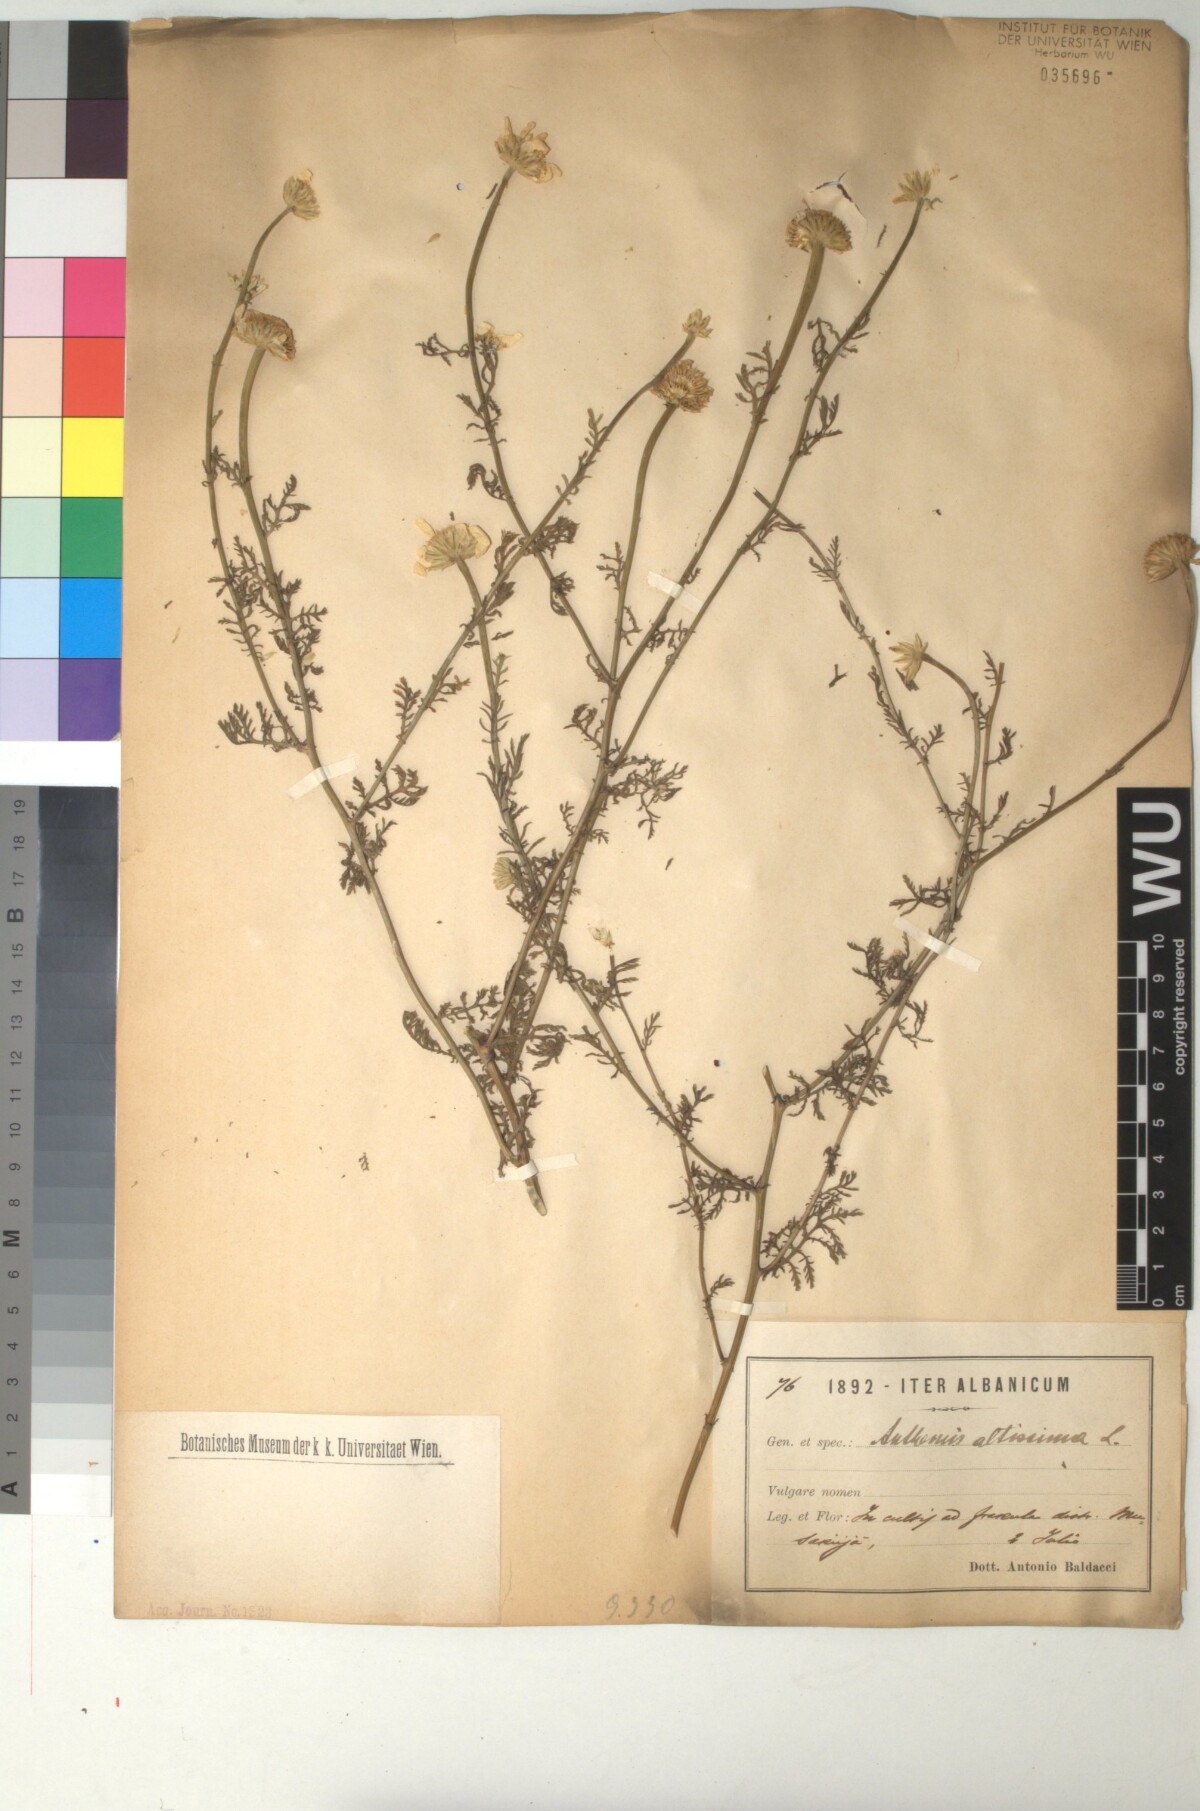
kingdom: Plantae
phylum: Tracheophyta
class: Magnoliopsida
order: Asterales
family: Asteraceae
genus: Cota
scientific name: Cota altissima
